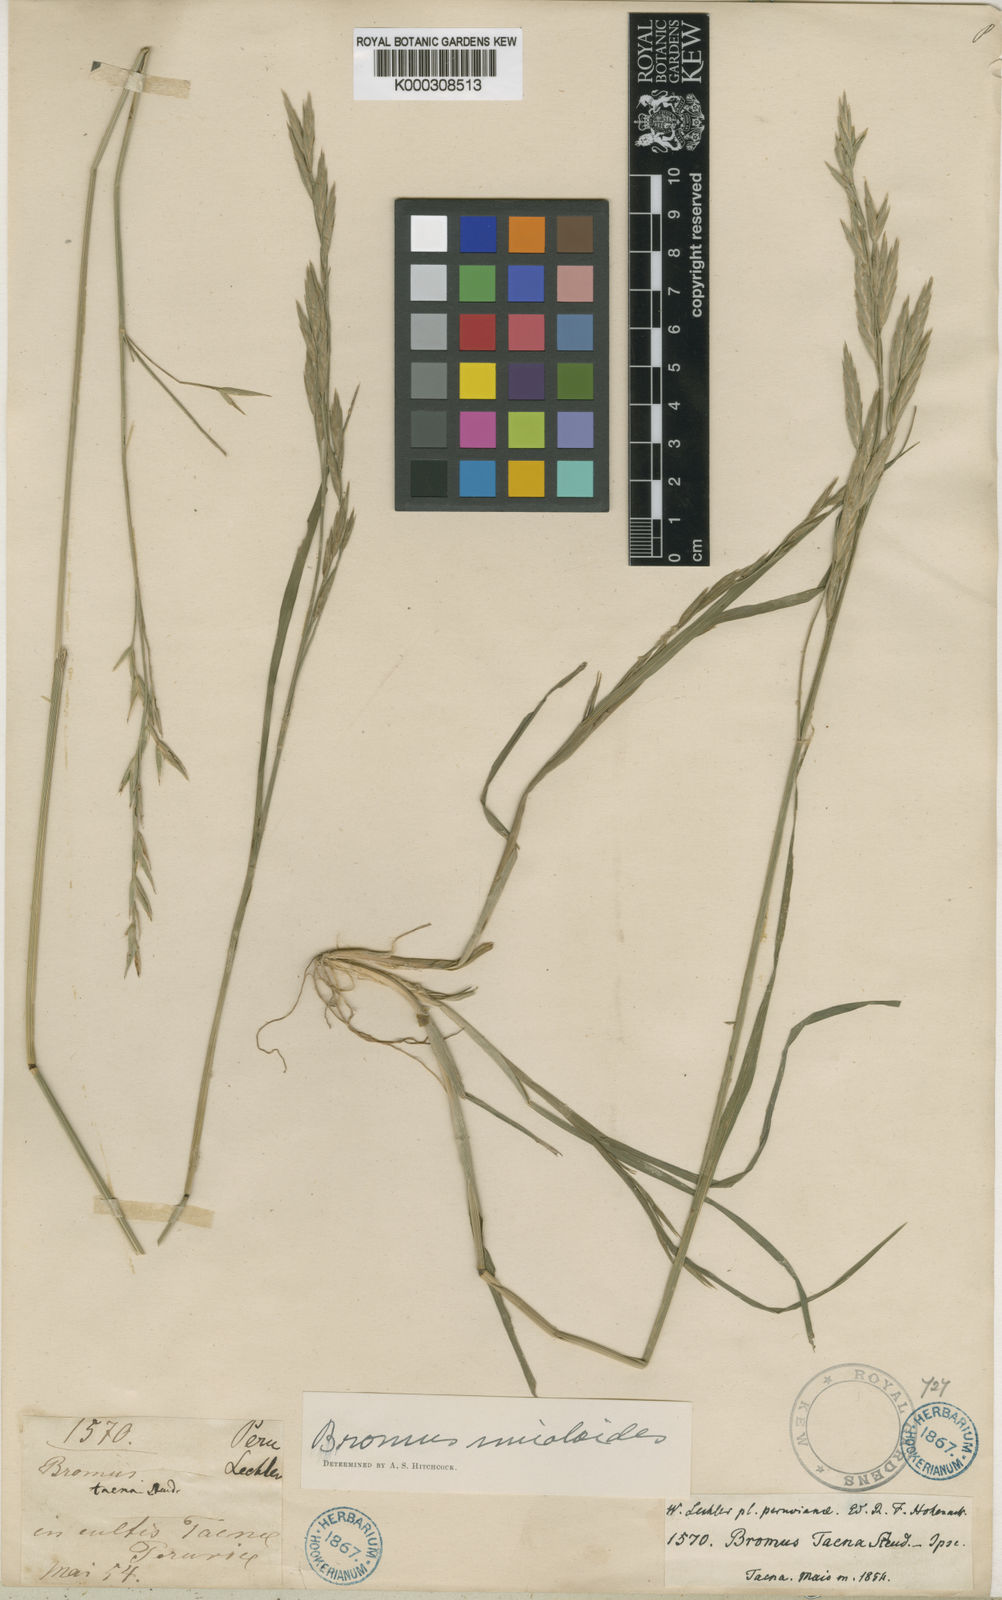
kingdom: Plantae
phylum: Tracheophyta
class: Liliopsida
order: Poales
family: Poaceae
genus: Bromus
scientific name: Bromus
